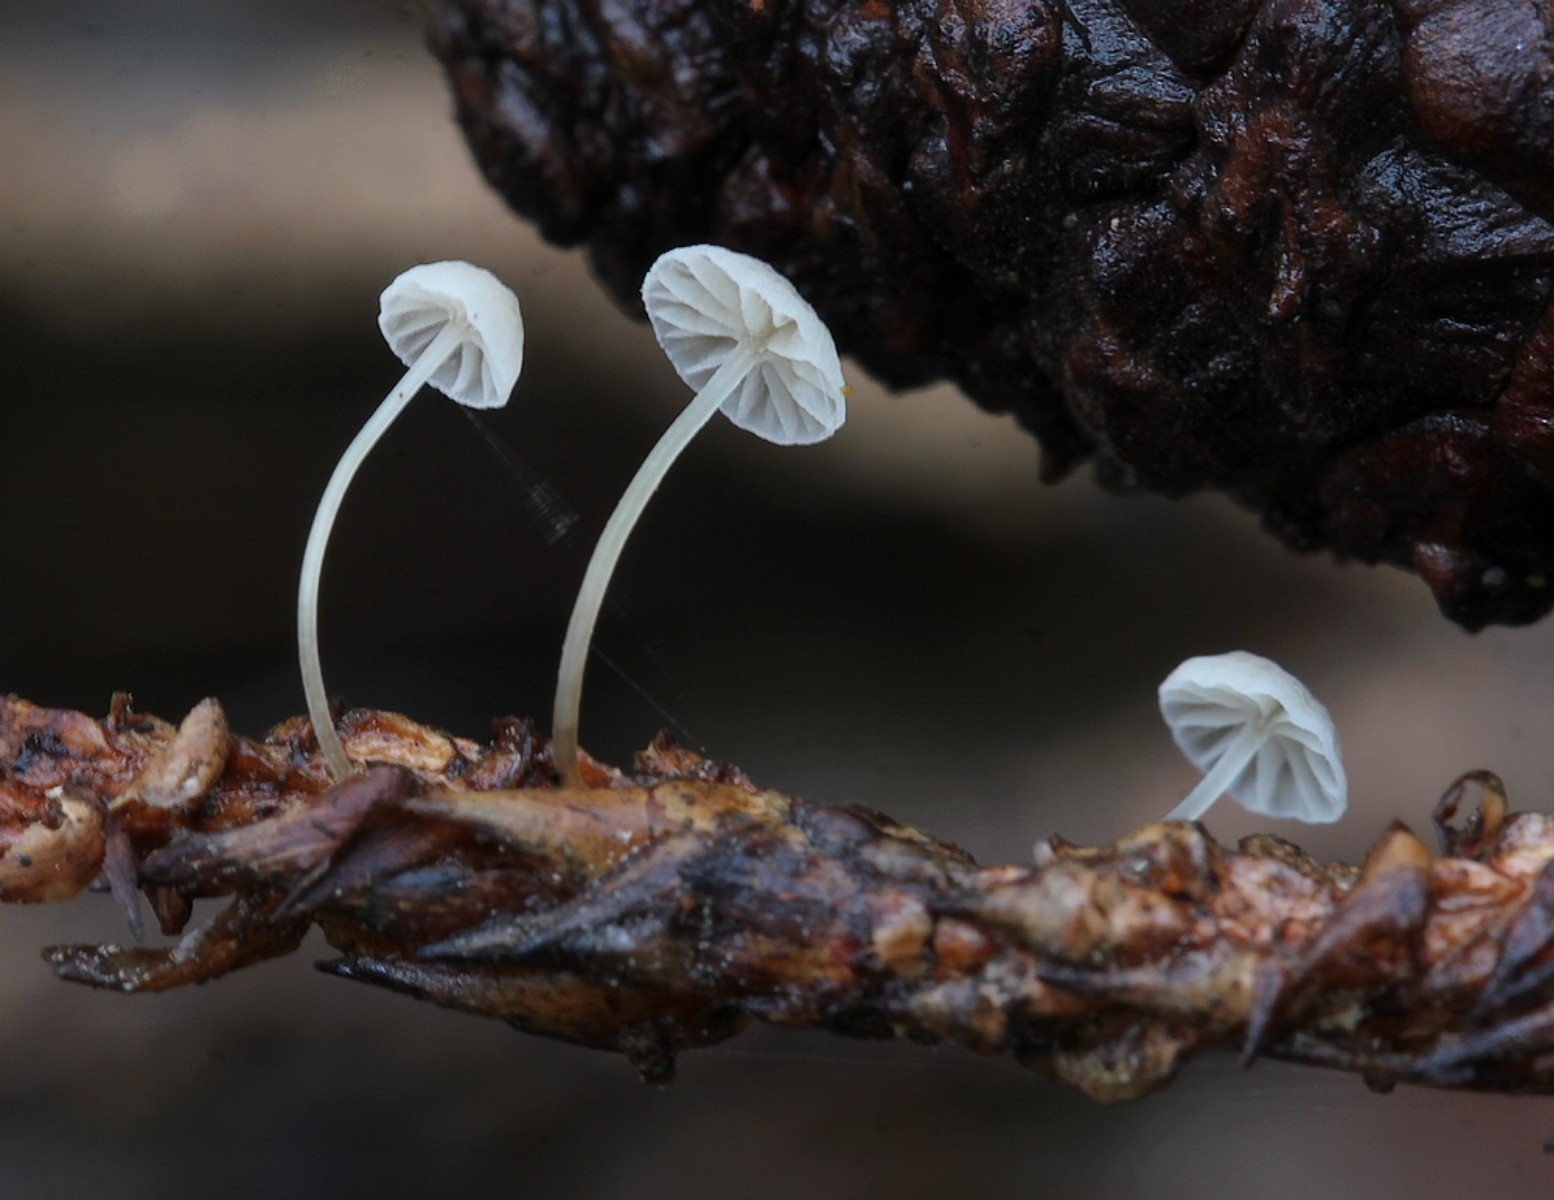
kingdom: Fungi
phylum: Basidiomycota
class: Agaricomycetes
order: Agaricales
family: Mycenaceae
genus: Mycena
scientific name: Mycena tenerrima
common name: pudret huesvamp
